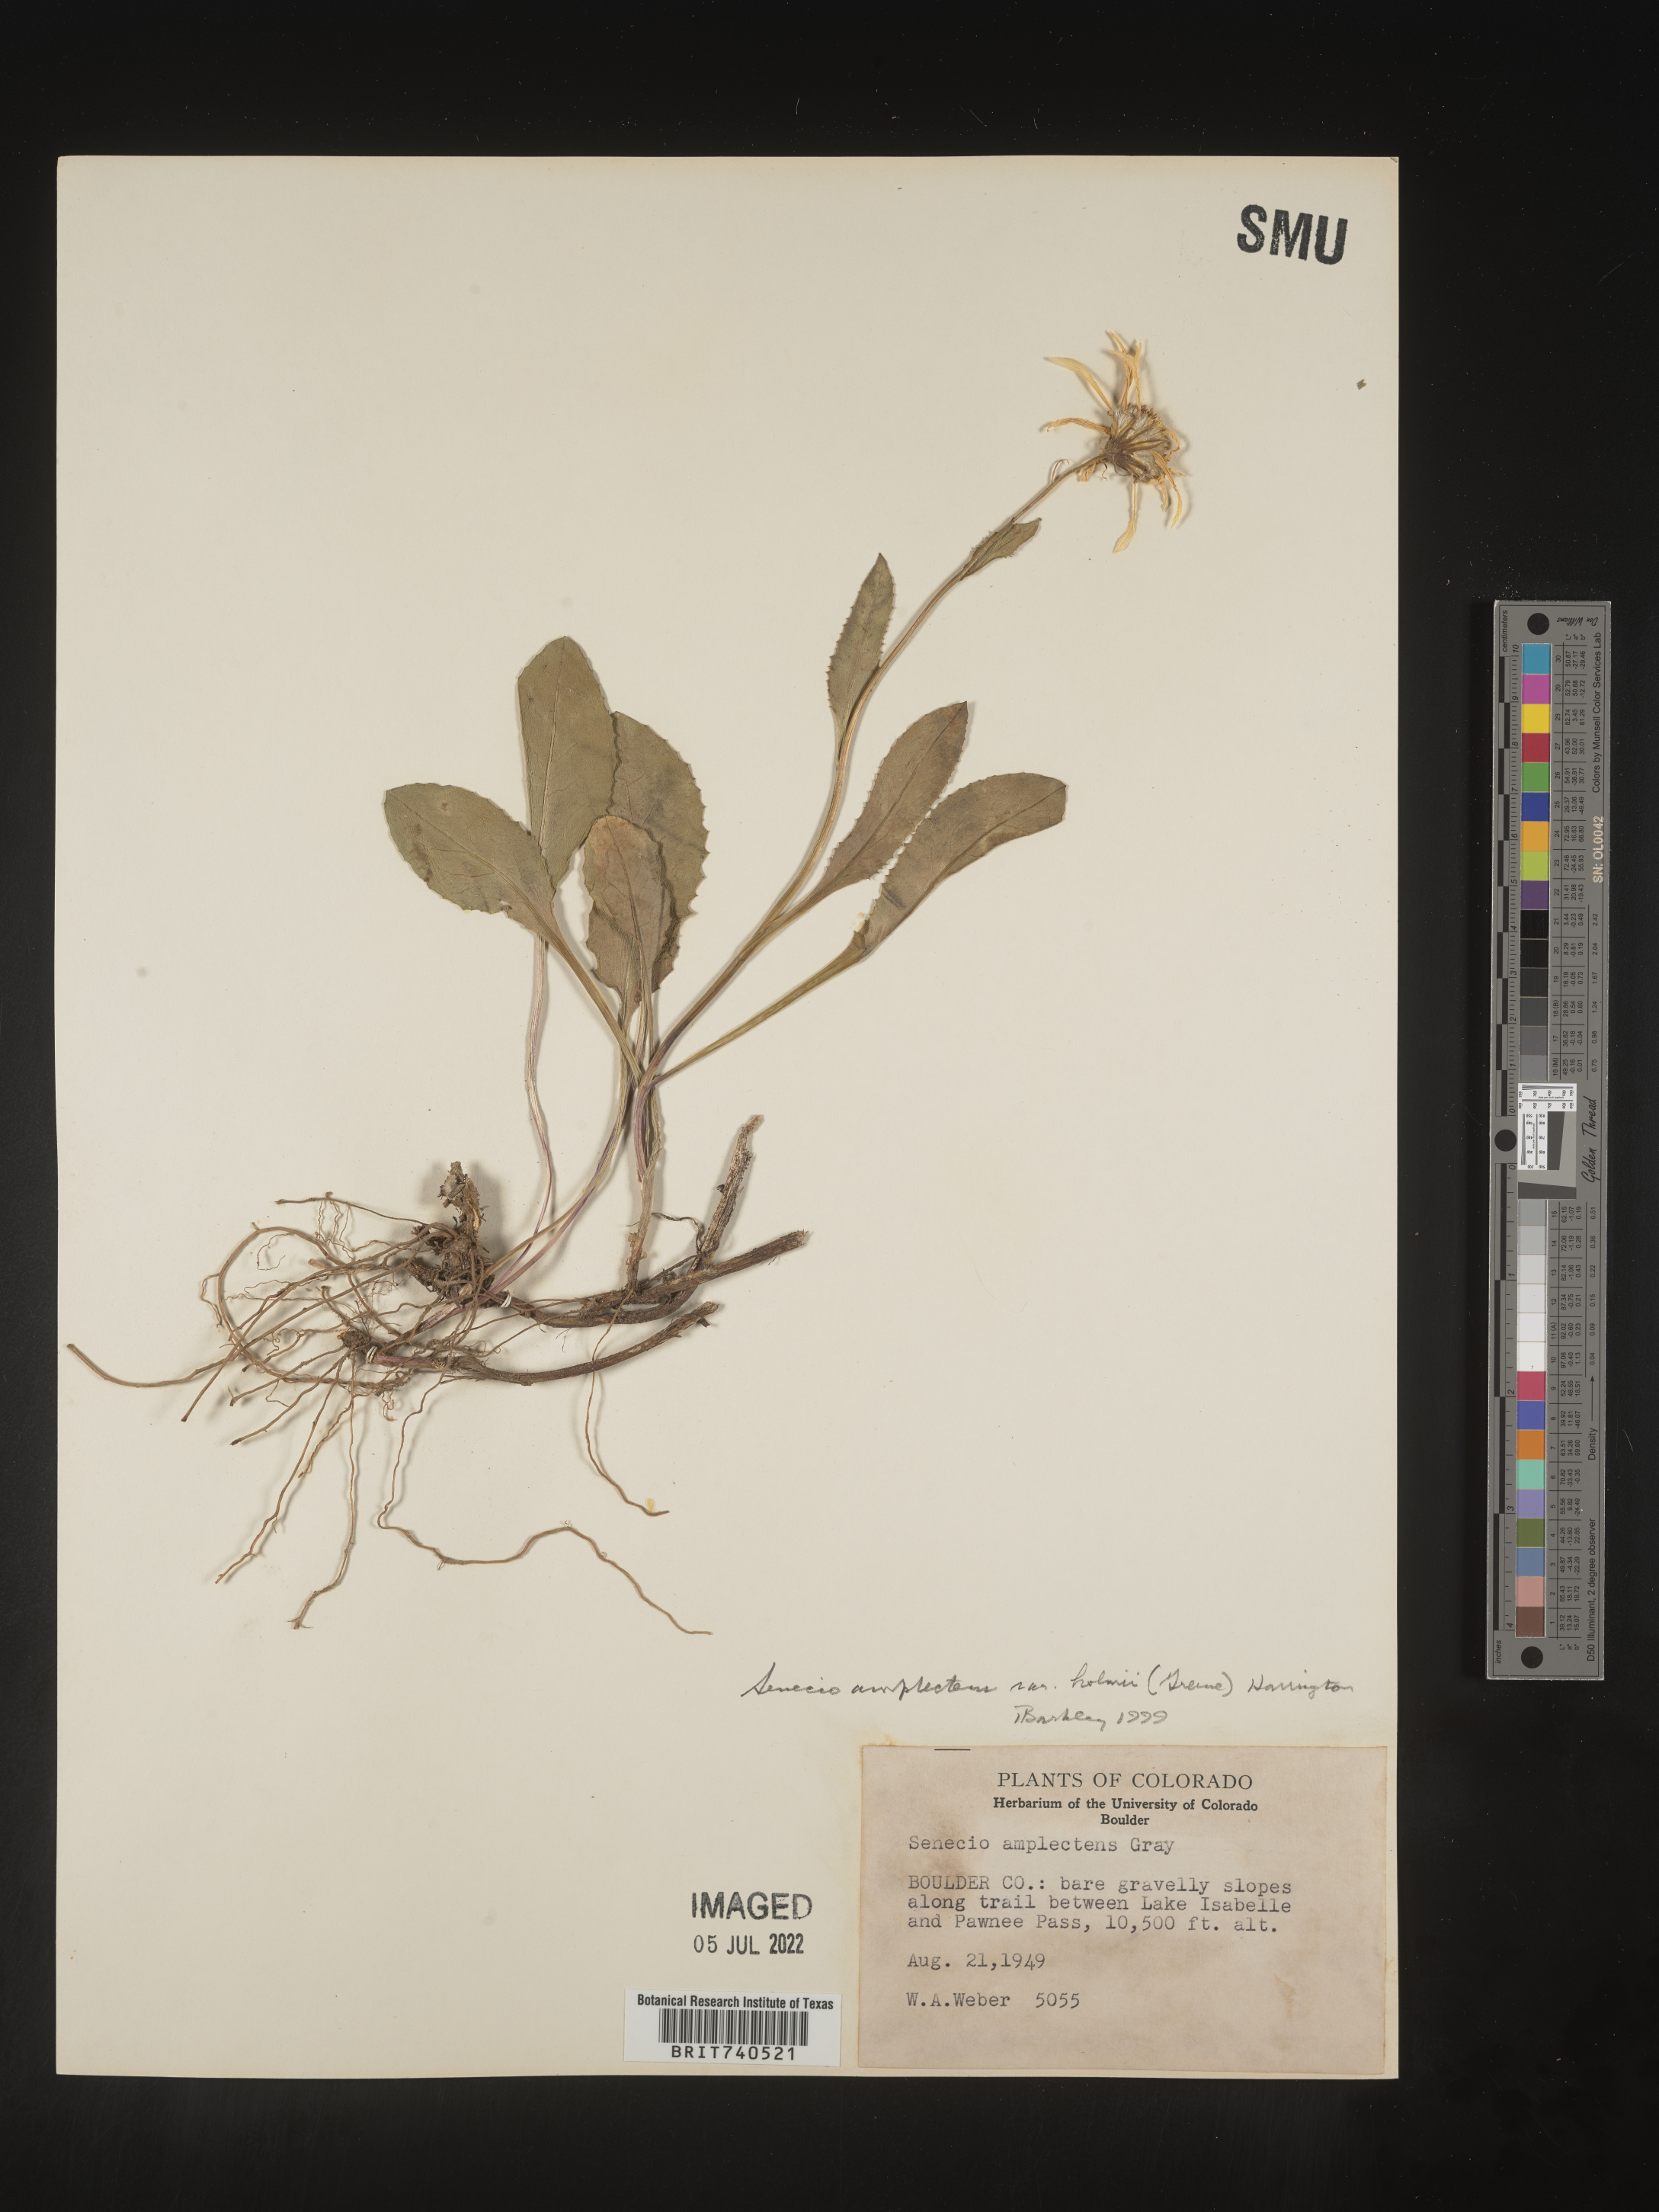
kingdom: Plantae
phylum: Tracheophyta
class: Magnoliopsida
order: Asterales
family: Asteraceae
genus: Senecio
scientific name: Senecio amplectens
